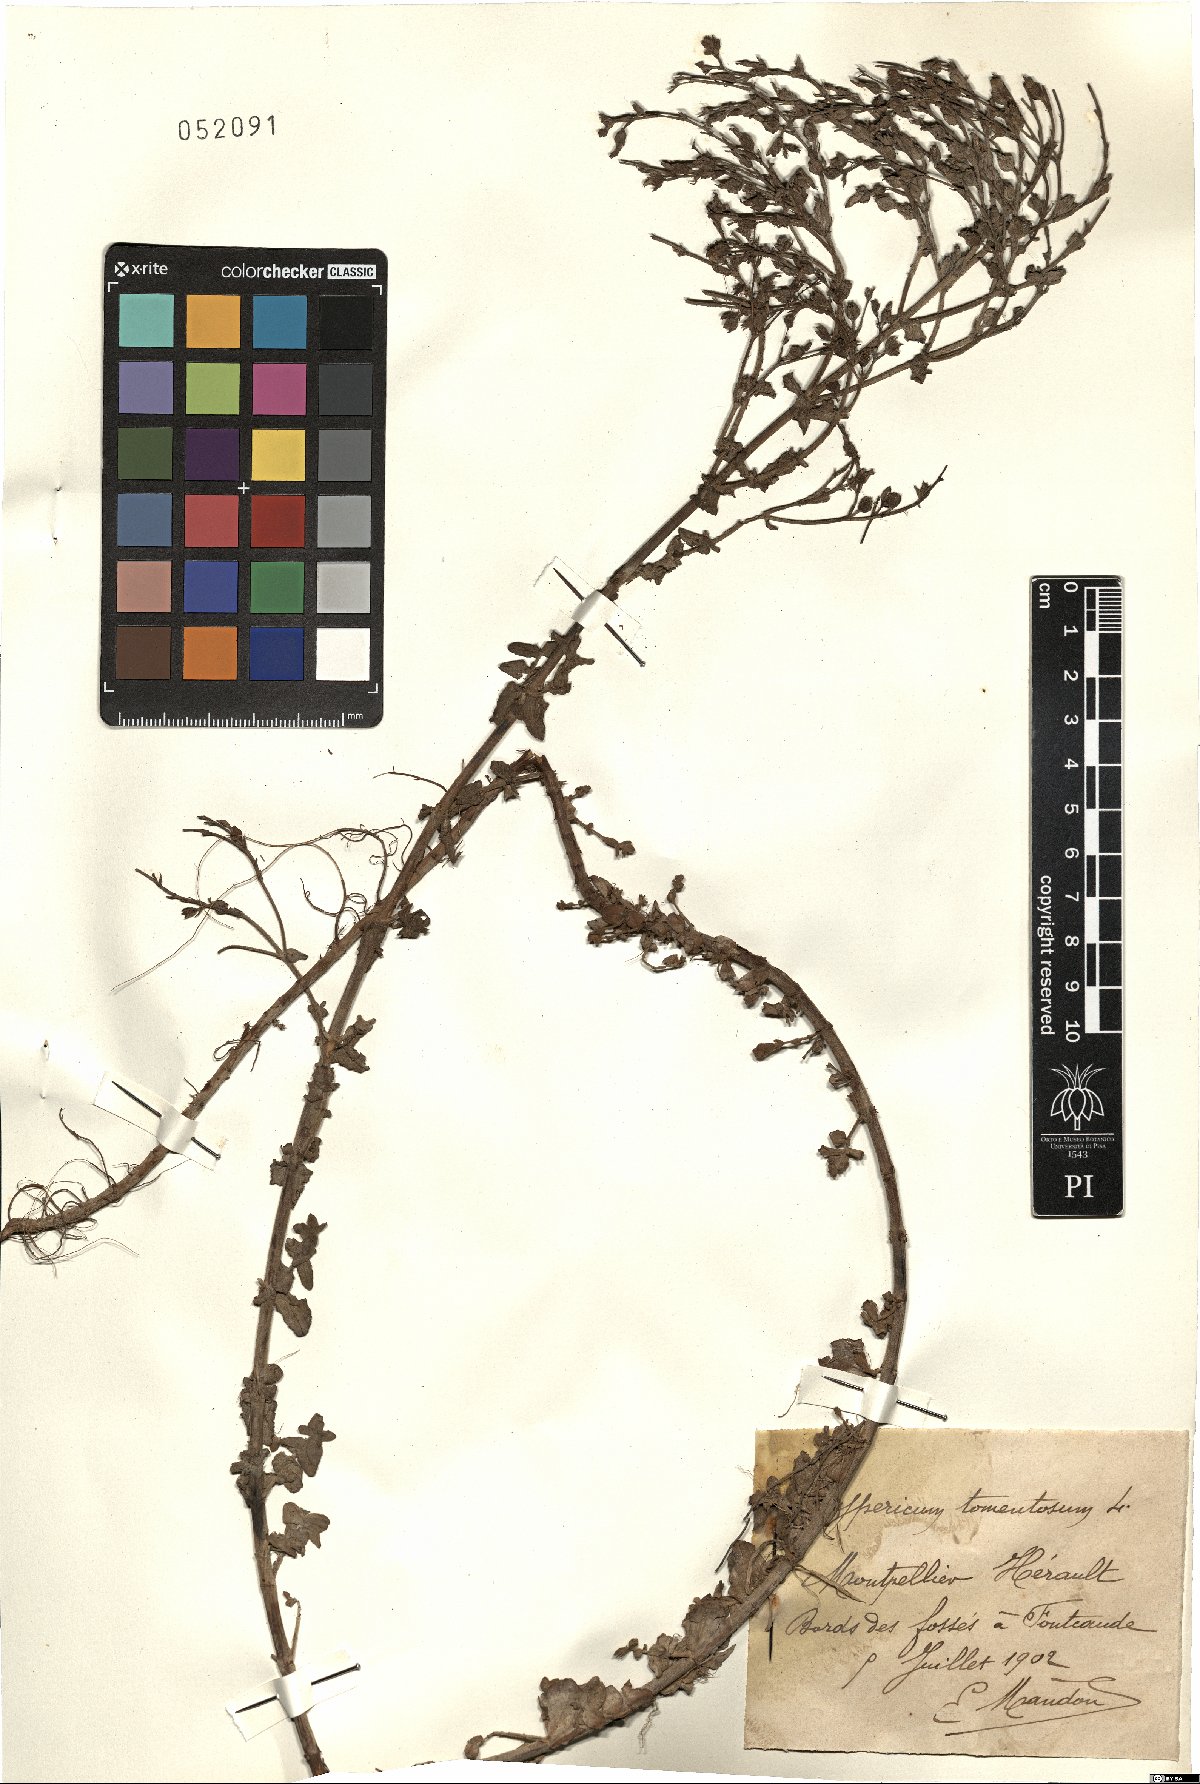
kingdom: Plantae
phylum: Tracheophyta
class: Magnoliopsida
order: Malpighiales
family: Hypericaceae
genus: Hypericum
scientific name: Hypericum tomentosum
